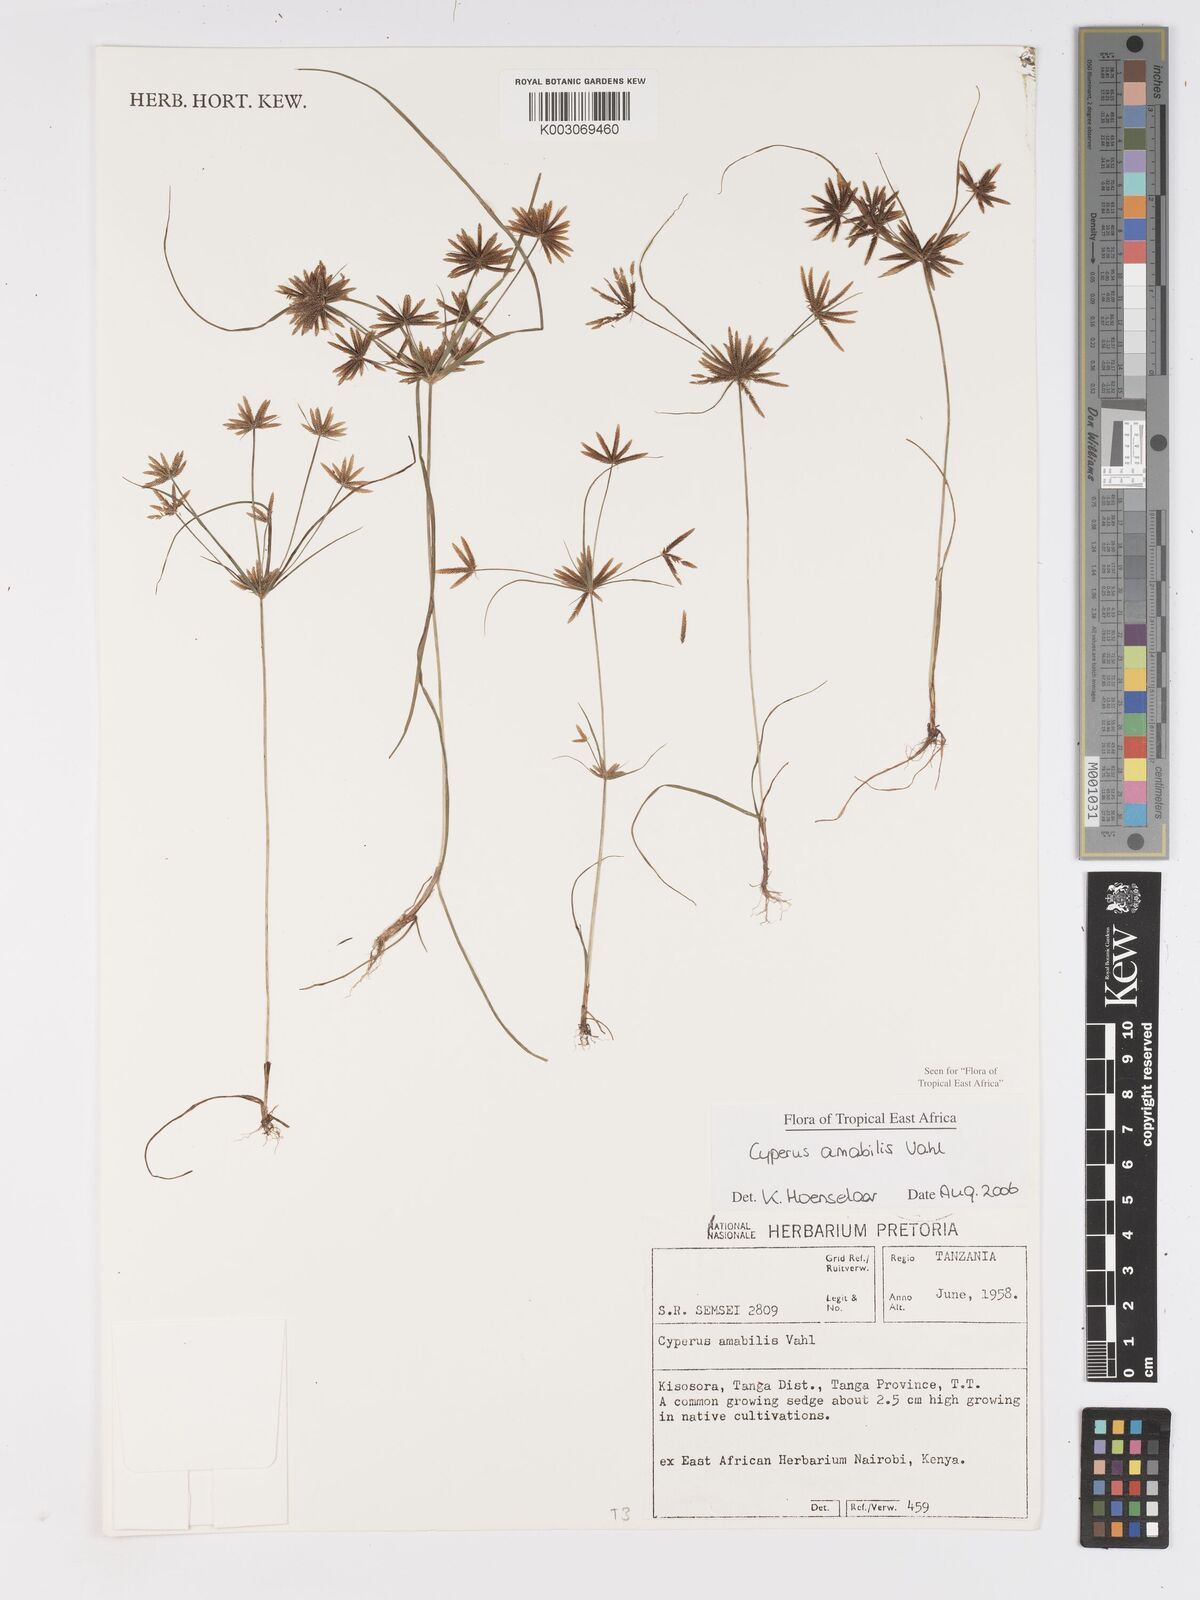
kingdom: Plantae
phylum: Tracheophyta
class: Liliopsida
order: Poales
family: Cyperaceae
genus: Cyperus
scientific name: Cyperus amabilis
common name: Foothill flat sedge
